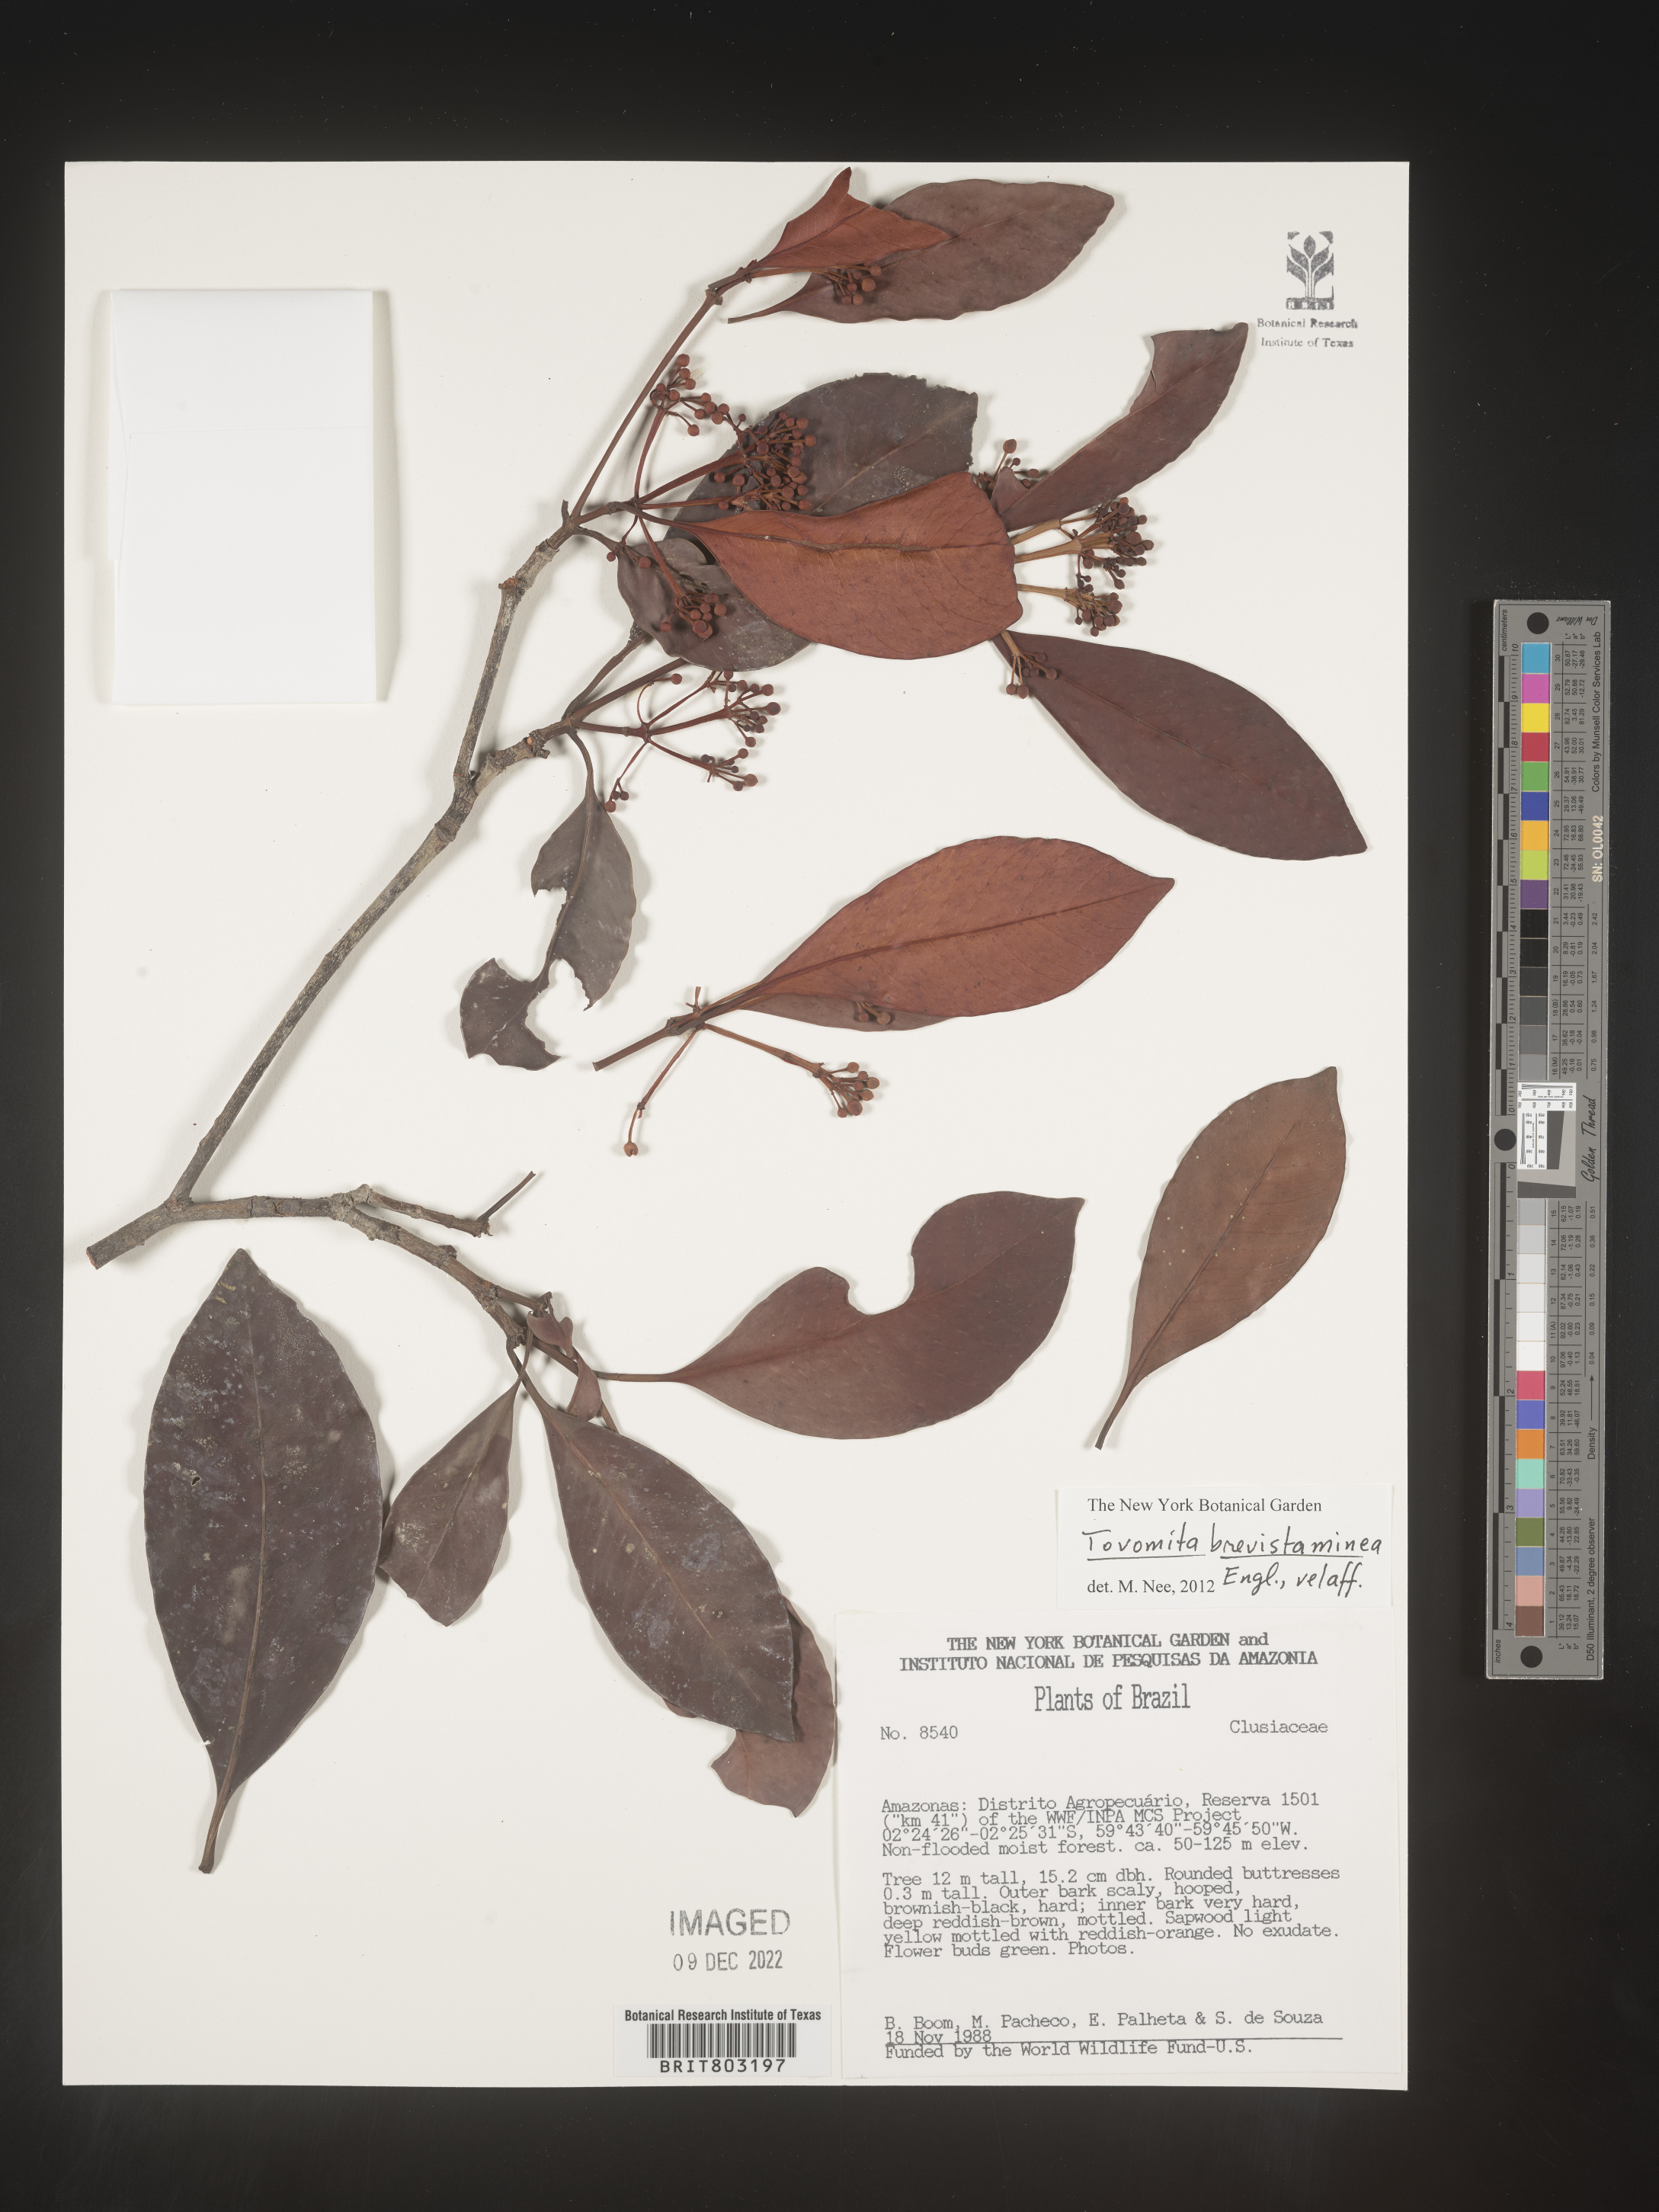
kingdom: Plantae
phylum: Tracheophyta
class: Magnoliopsida
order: Malpighiales
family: Clusiaceae
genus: Tovomita
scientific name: Tovomita
